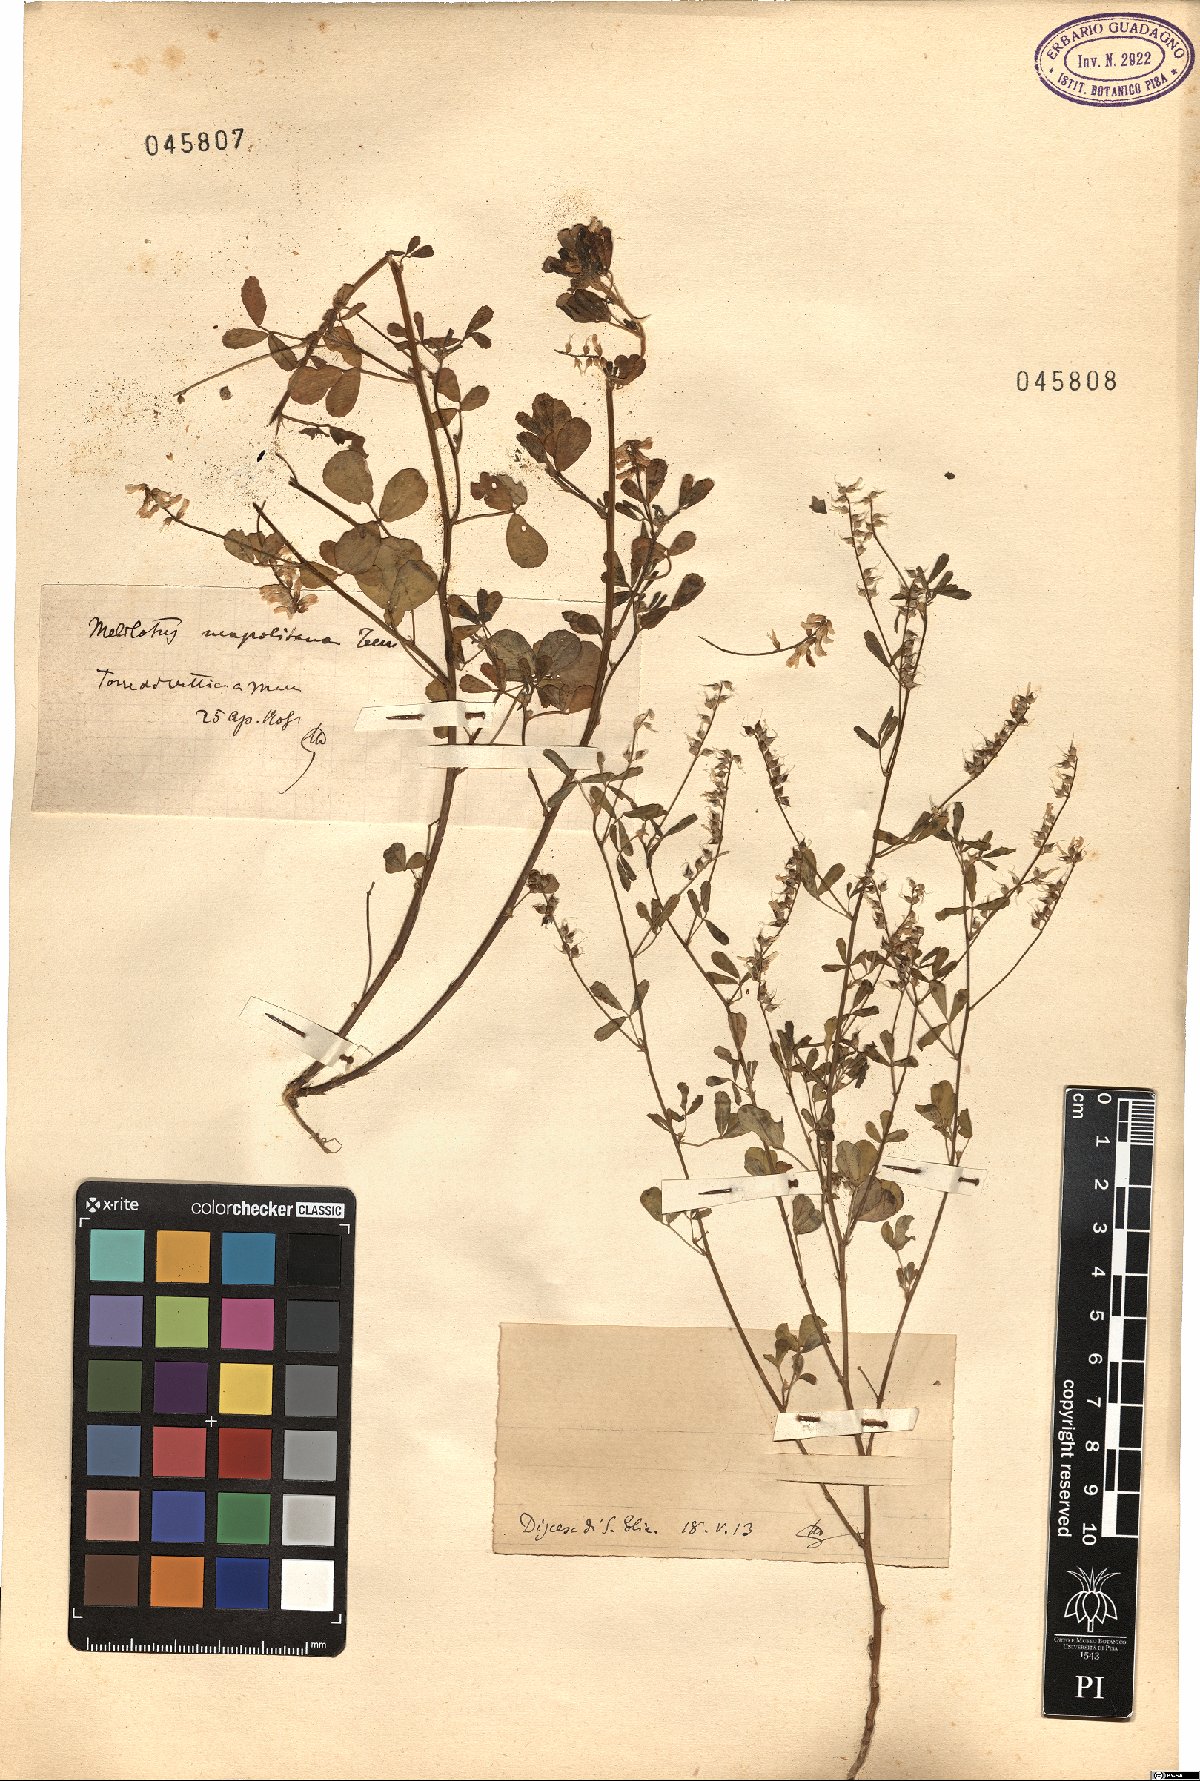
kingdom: Plantae
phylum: Tracheophyta
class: Magnoliopsida
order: Fabales
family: Fabaceae
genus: Melilotus
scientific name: Melilotus neapolitanus
